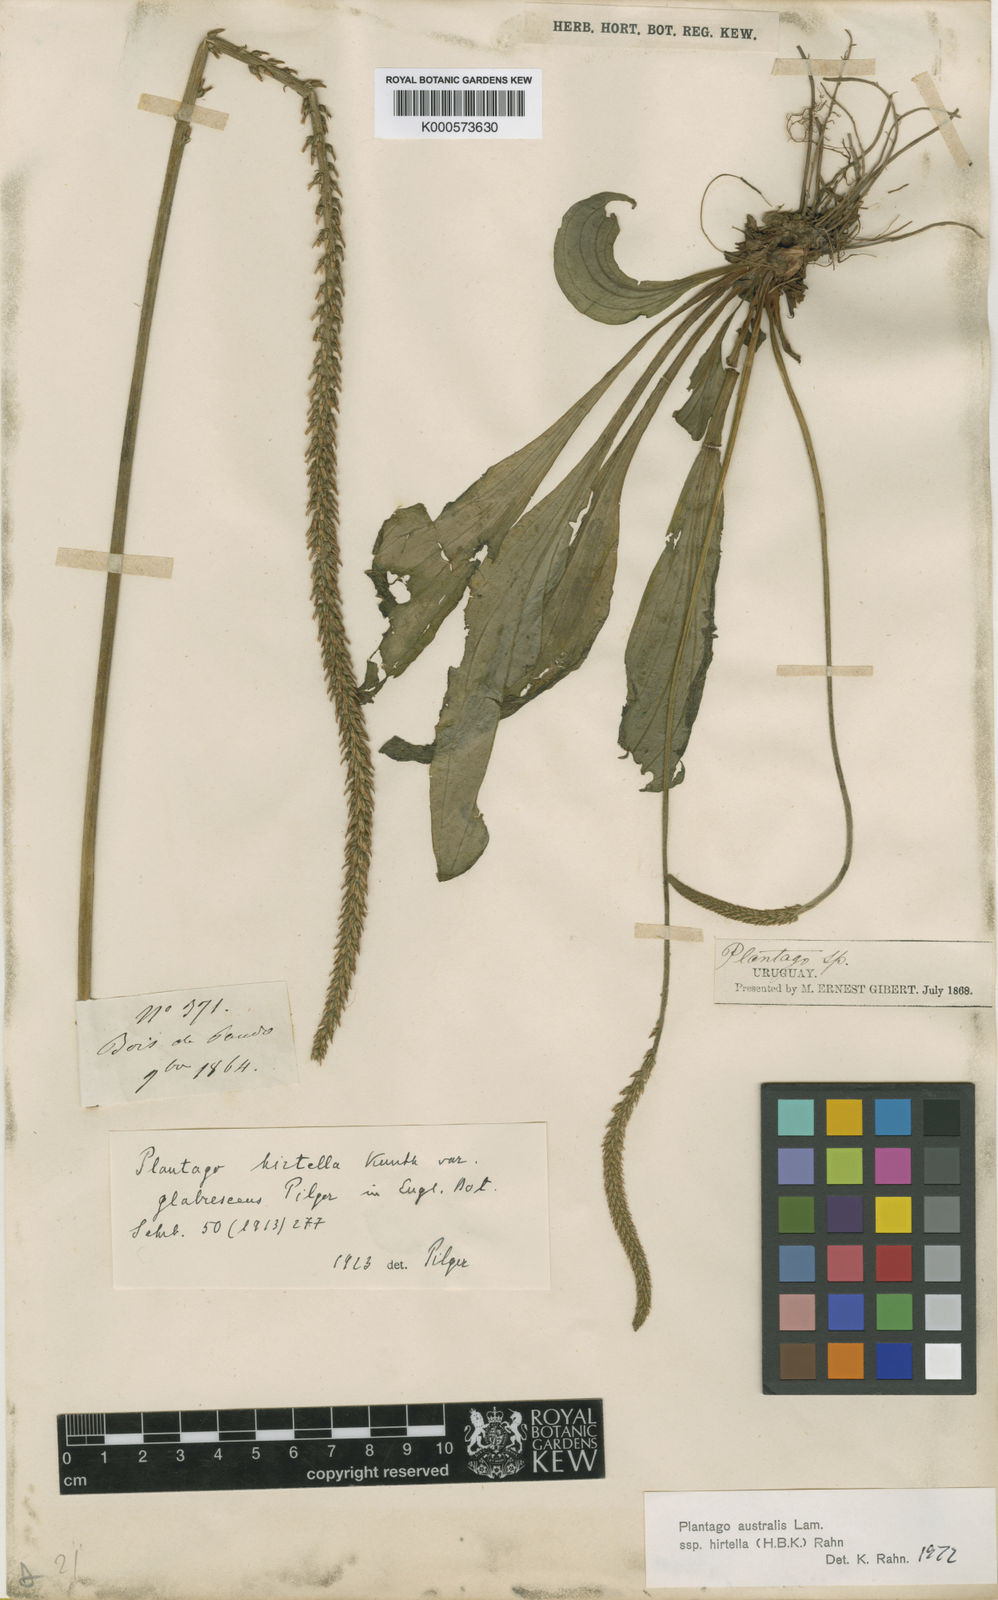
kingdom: Plantae
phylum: Tracheophyta
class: Magnoliopsida
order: Lamiales
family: Plantaginaceae
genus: Plantago
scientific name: Plantago australis
